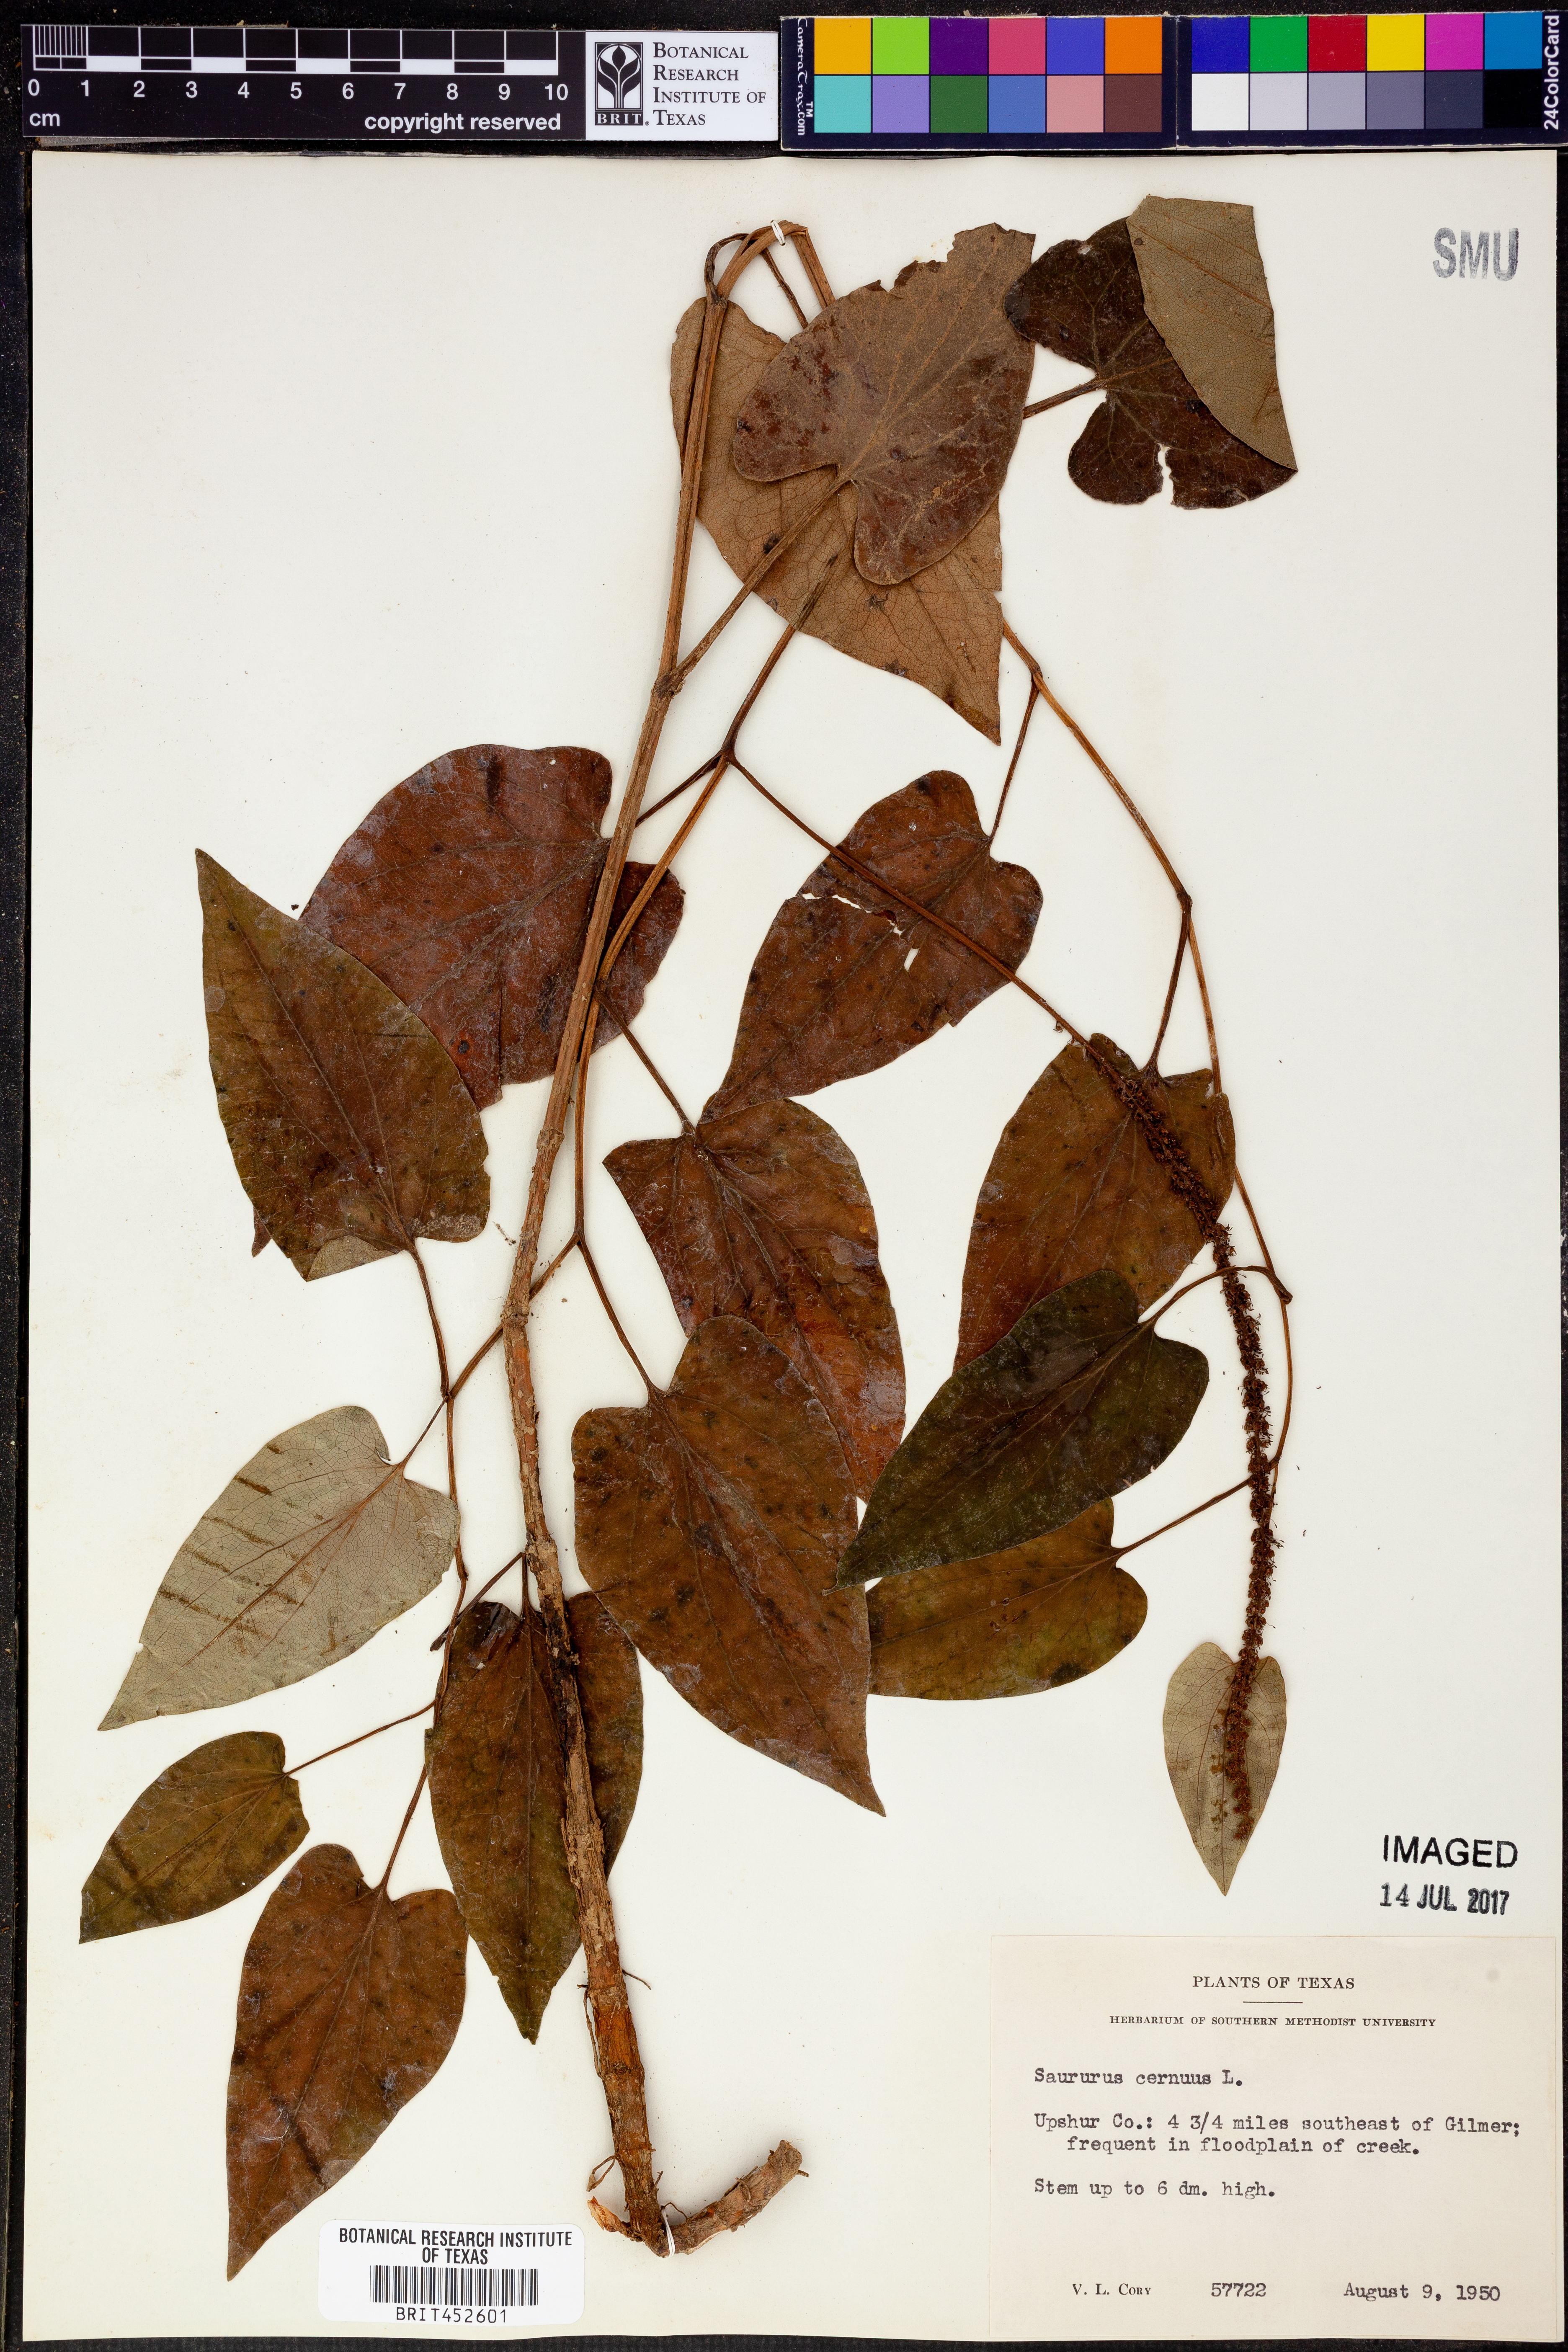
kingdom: Plantae
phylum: Tracheophyta
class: Magnoliopsida
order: Piperales
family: Saururaceae
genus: Saururus
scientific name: Saururus cernuus
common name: Lizard's-tail
